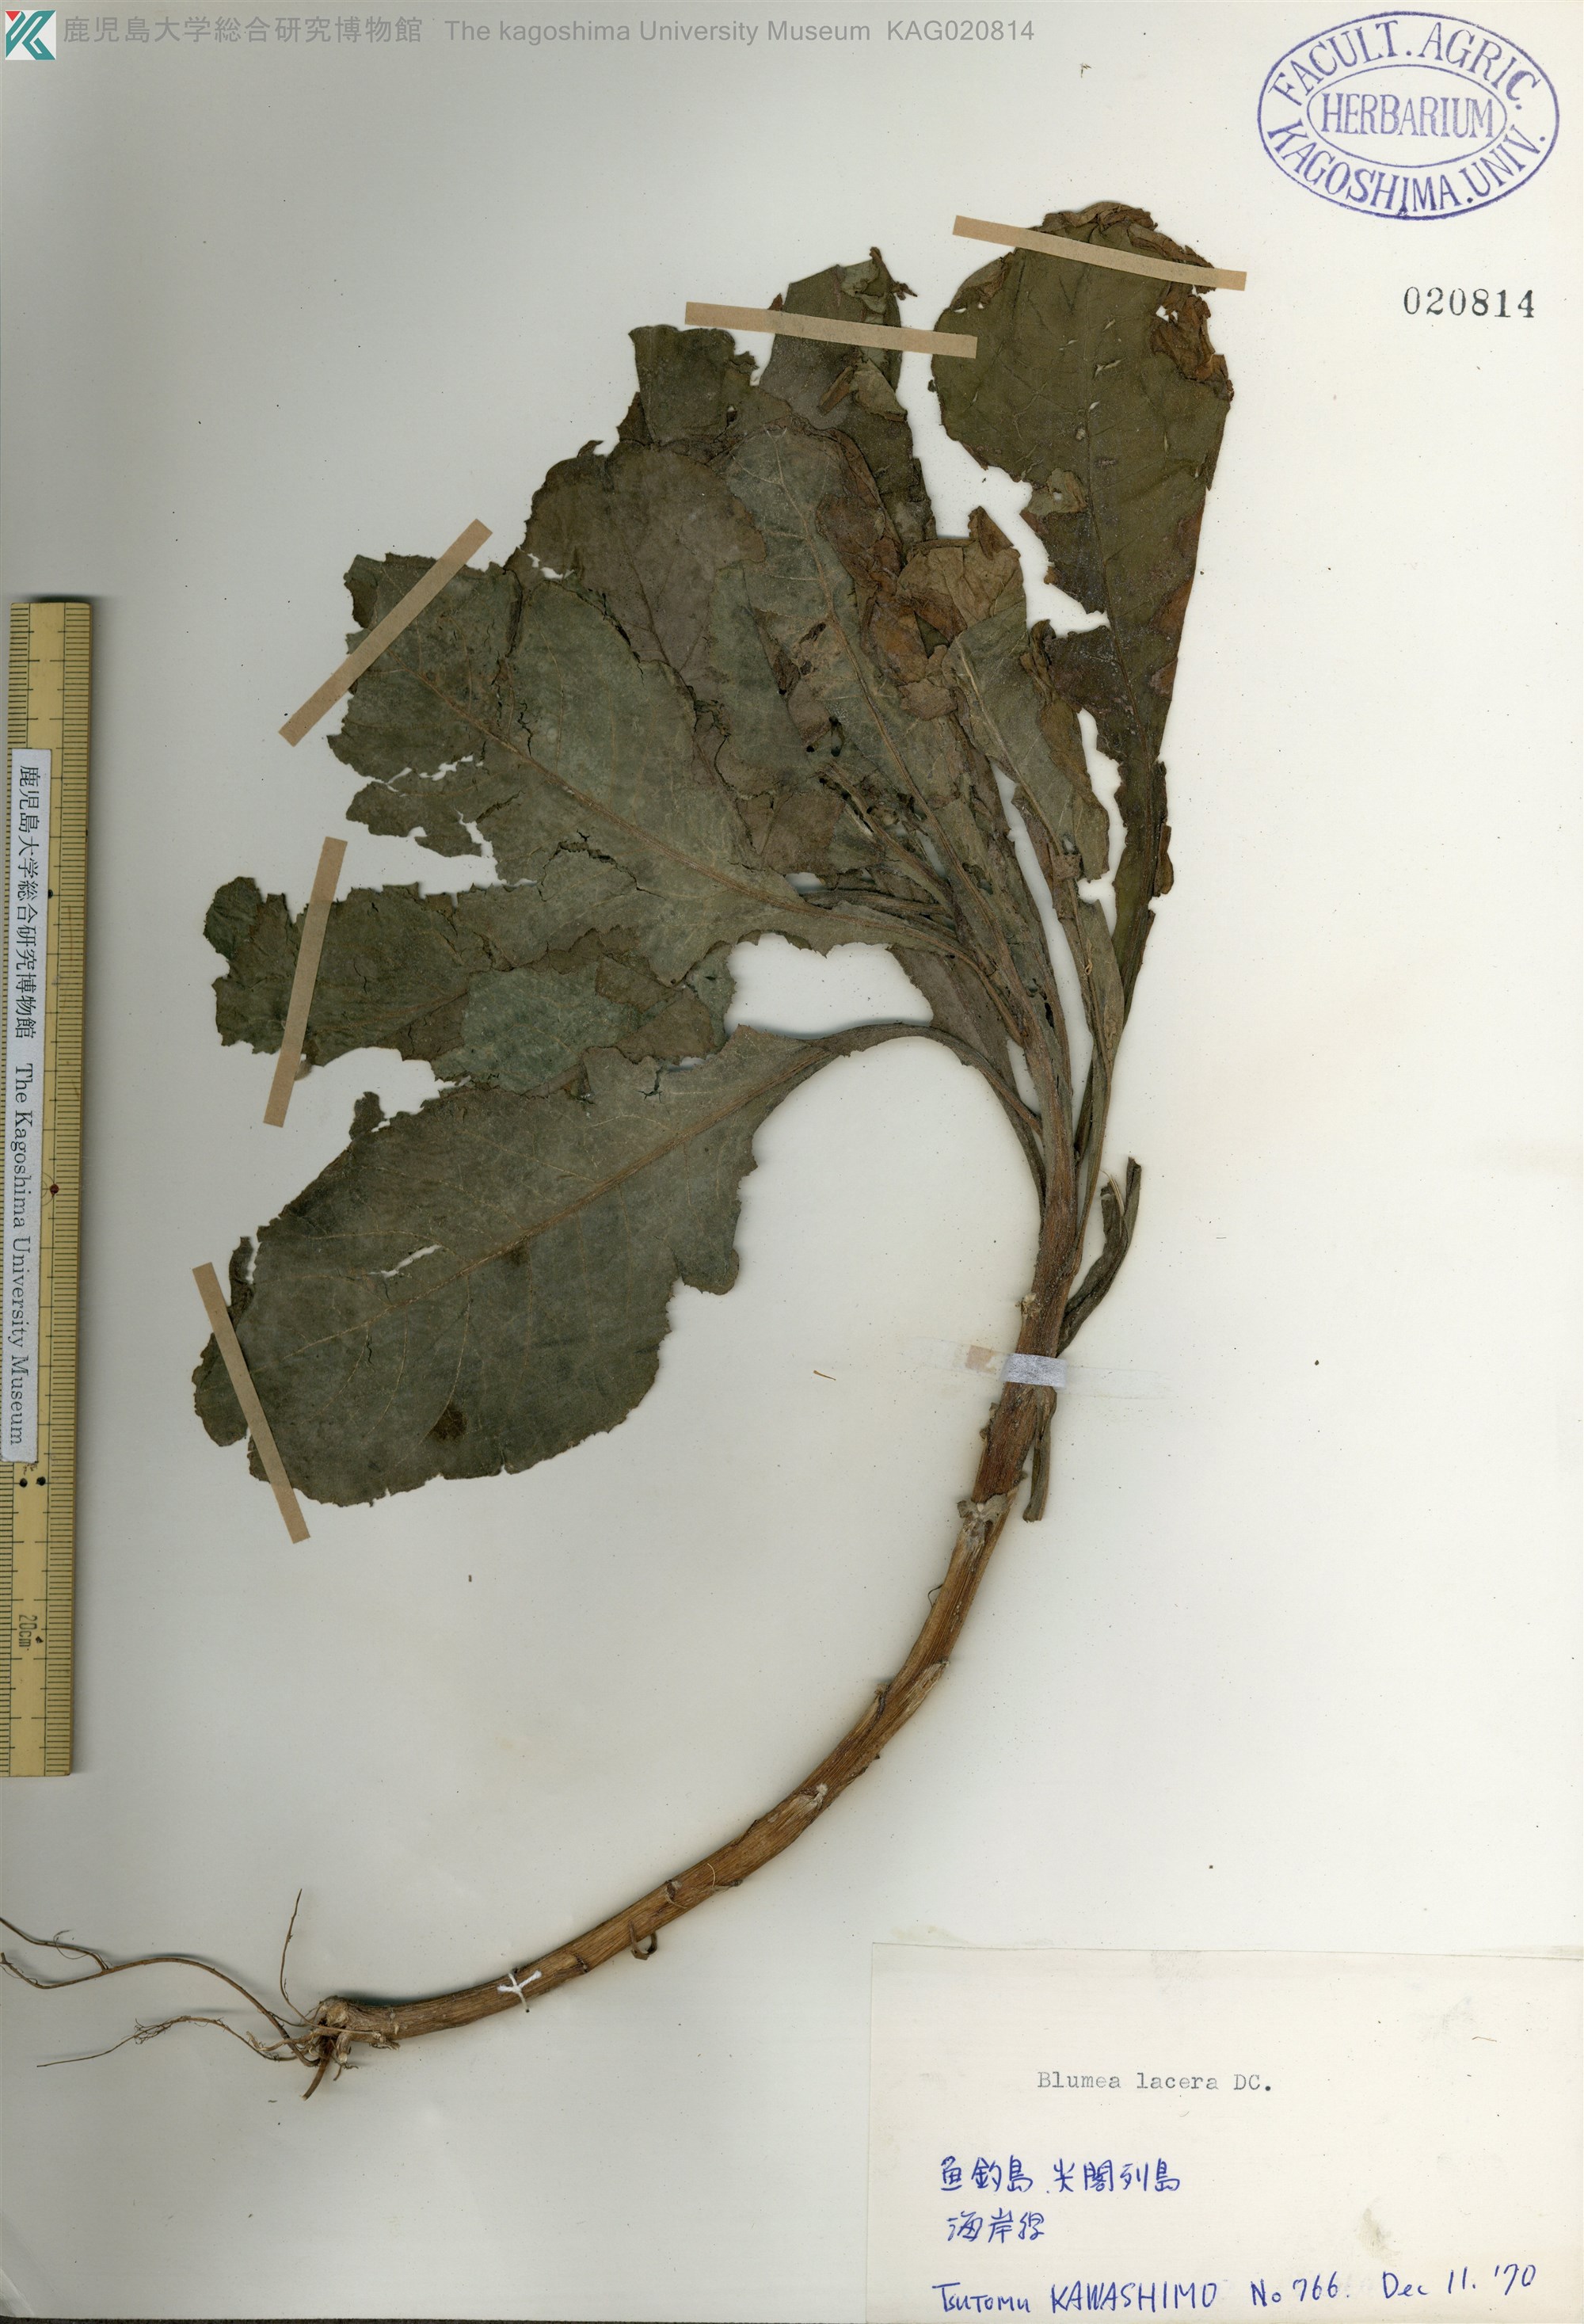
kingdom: Plantae
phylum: Tracheophyta
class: Magnoliopsida
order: Asterales
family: Asteraceae
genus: Blumea
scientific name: Blumea lacera
